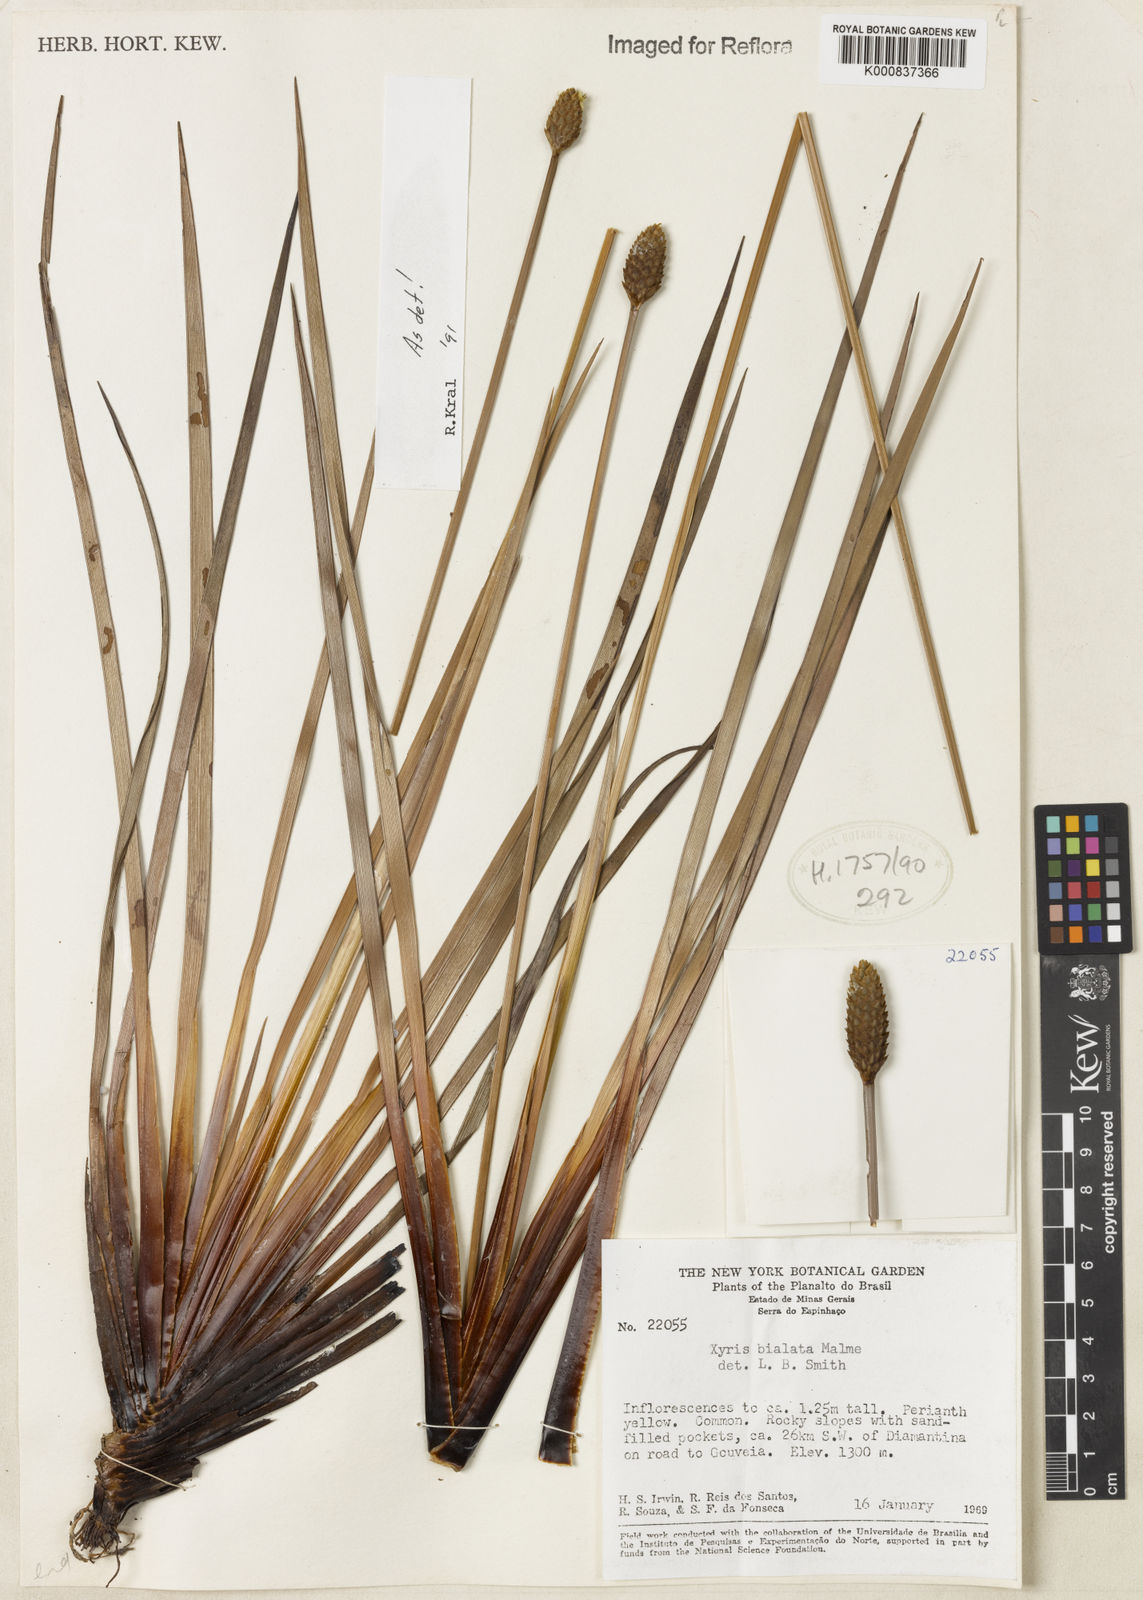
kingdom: Plantae
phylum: Tracheophyta
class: Liliopsida
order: Poales
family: Xyridaceae
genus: Xyris
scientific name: Xyris bialata
